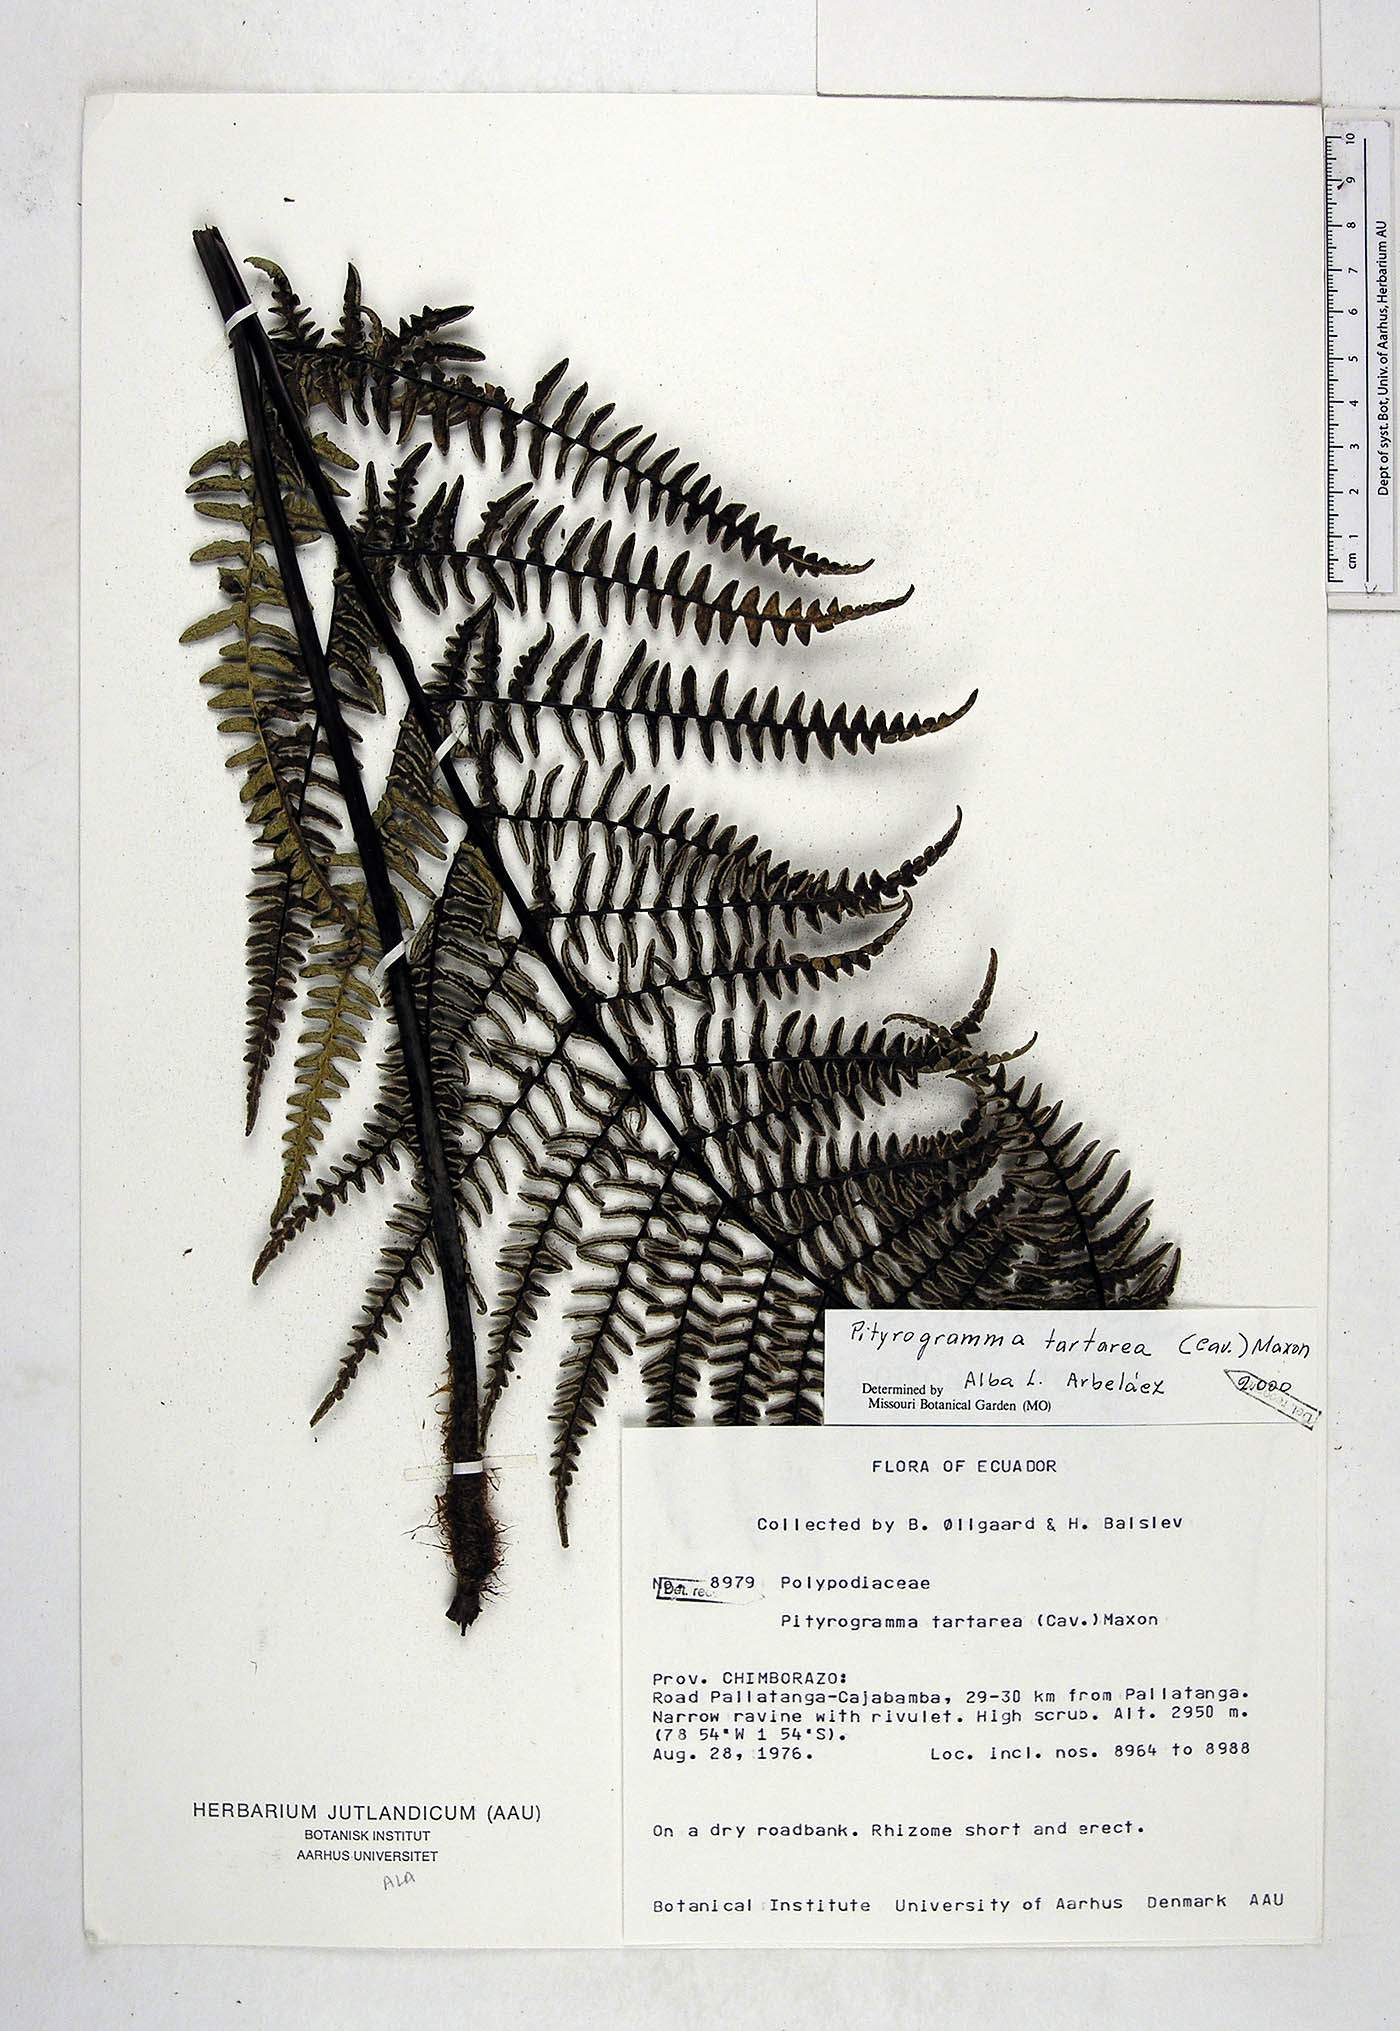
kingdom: Plantae
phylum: Tracheophyta
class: Polypodiopsida
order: Polypodiales
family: Pteridaceae
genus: Pityrogramma
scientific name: Pityrogramma ebenea
